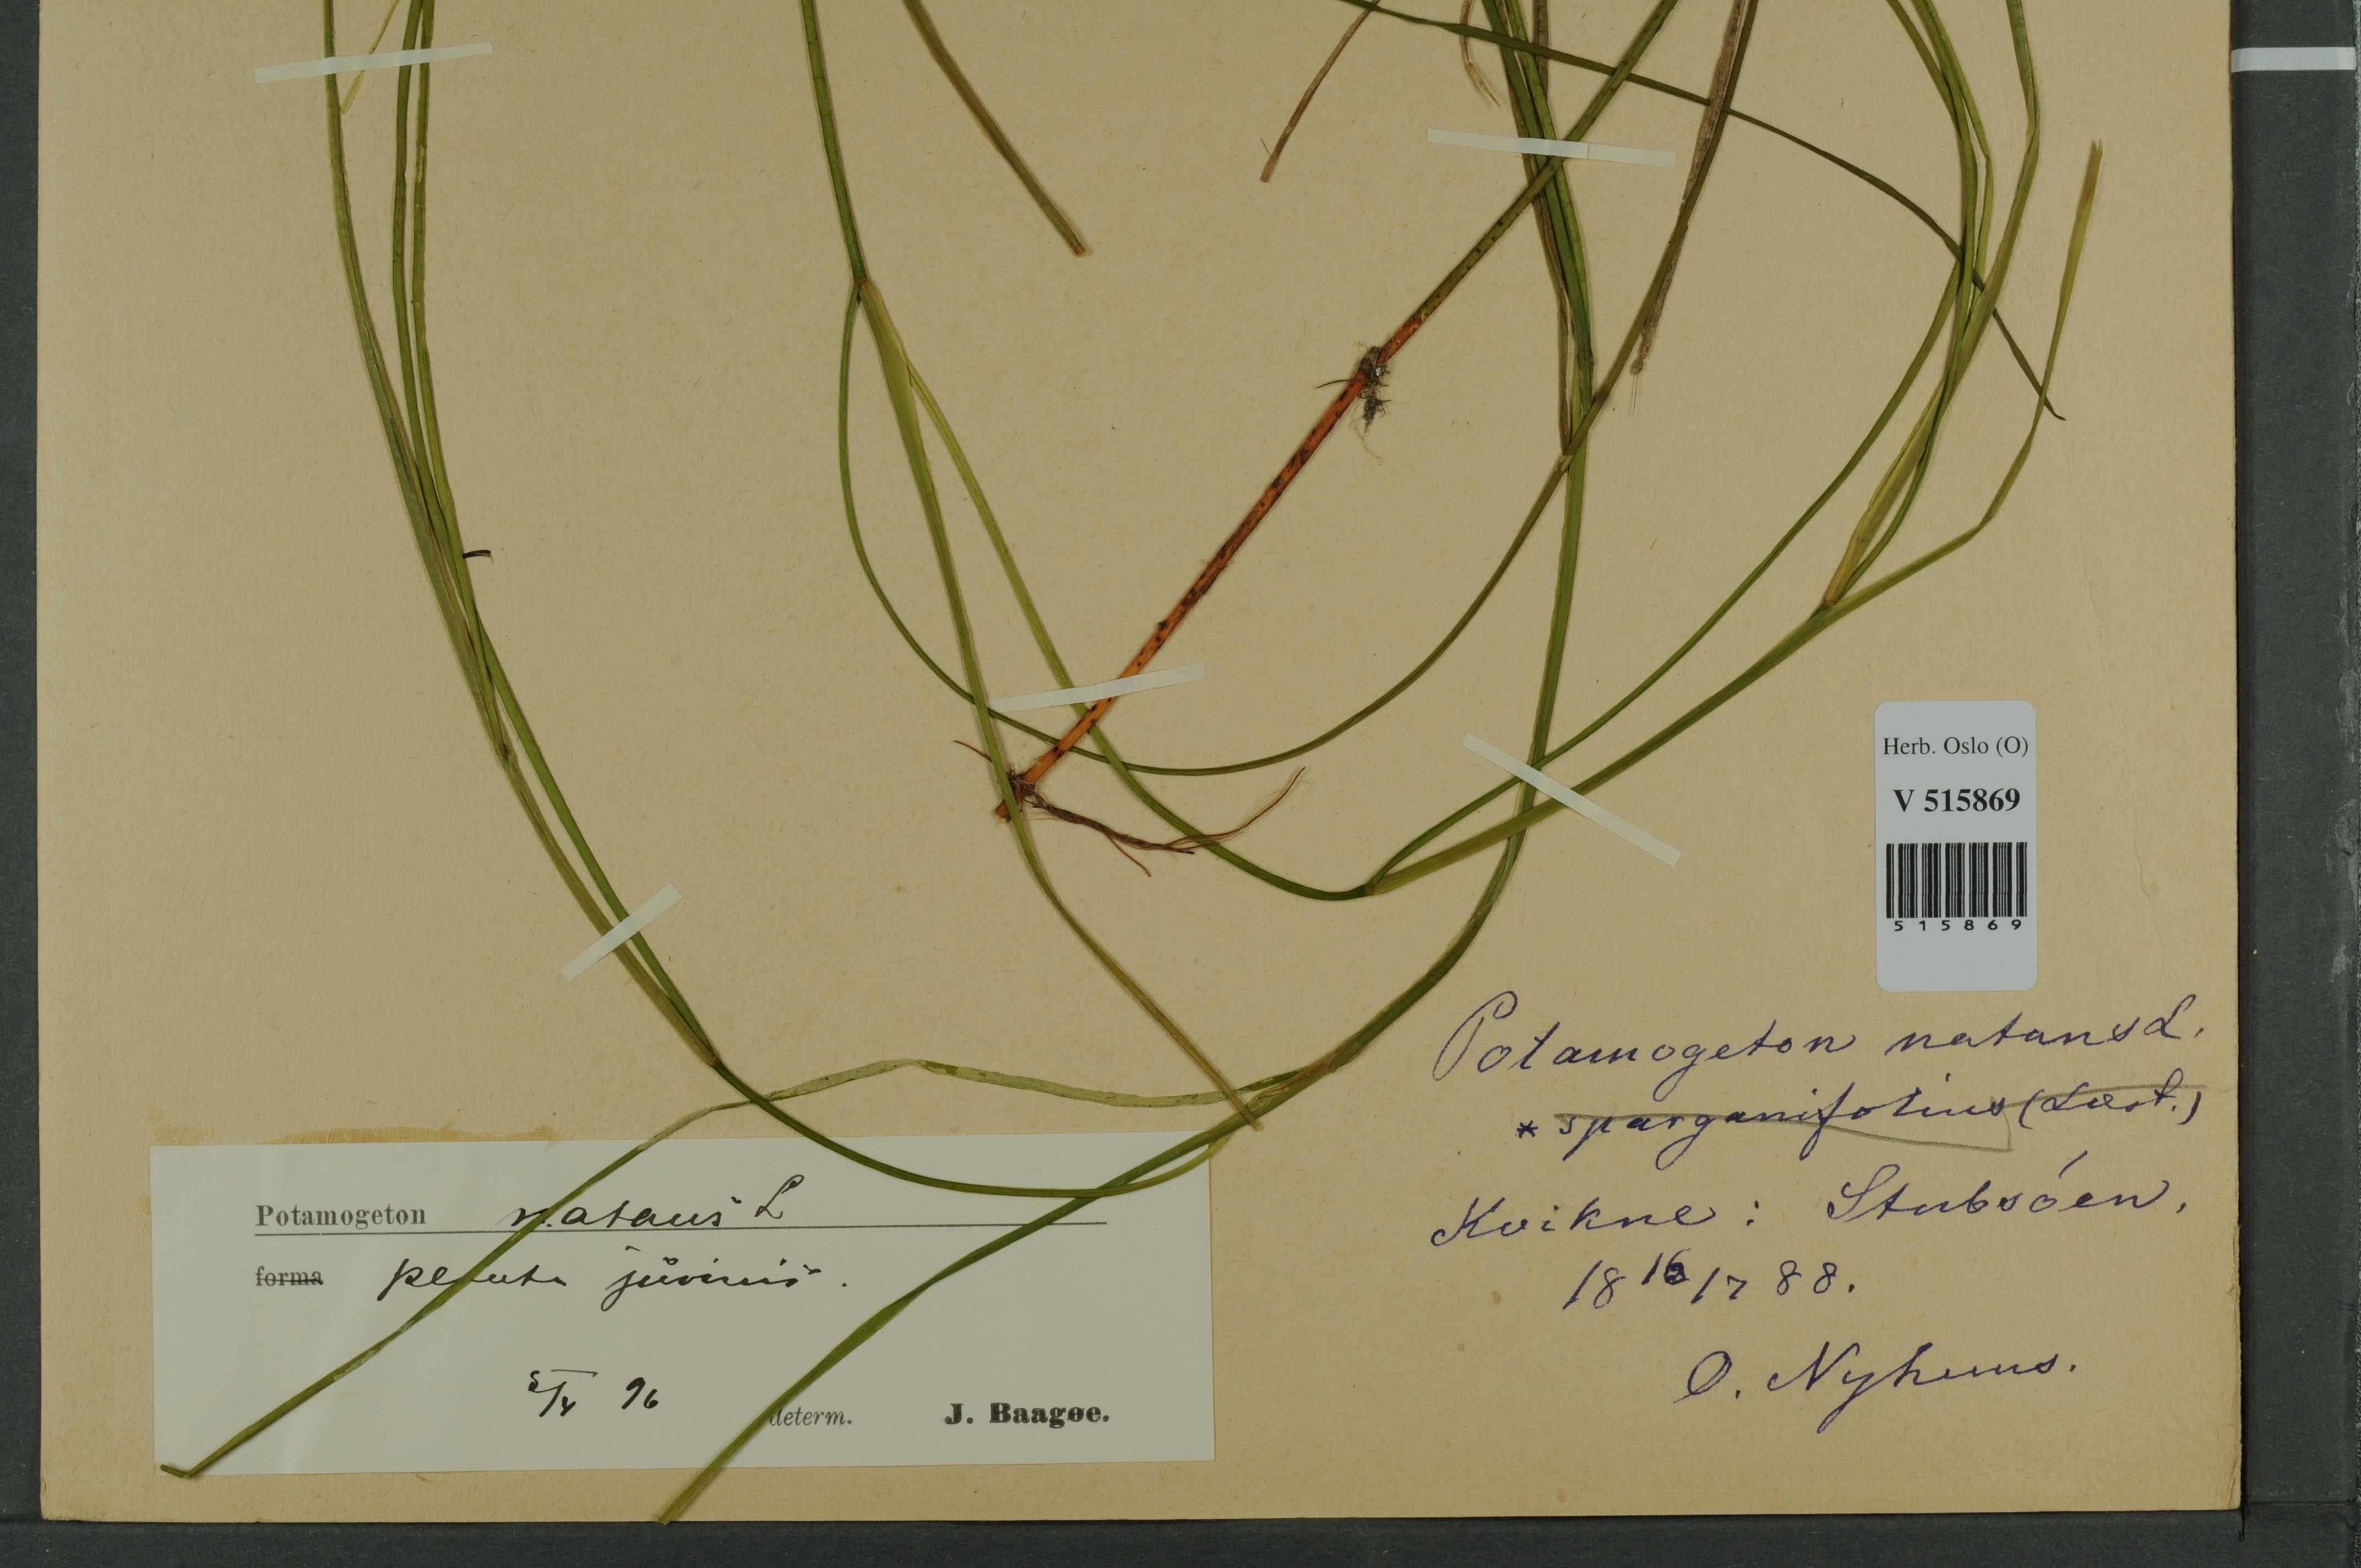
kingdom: Plantae
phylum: Tracheophyta
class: Liliopsida
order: Alismatales
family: Potamogetonaceae
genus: Potamogeton
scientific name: Potamogeton natans
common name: Broad-leaved pondweed
